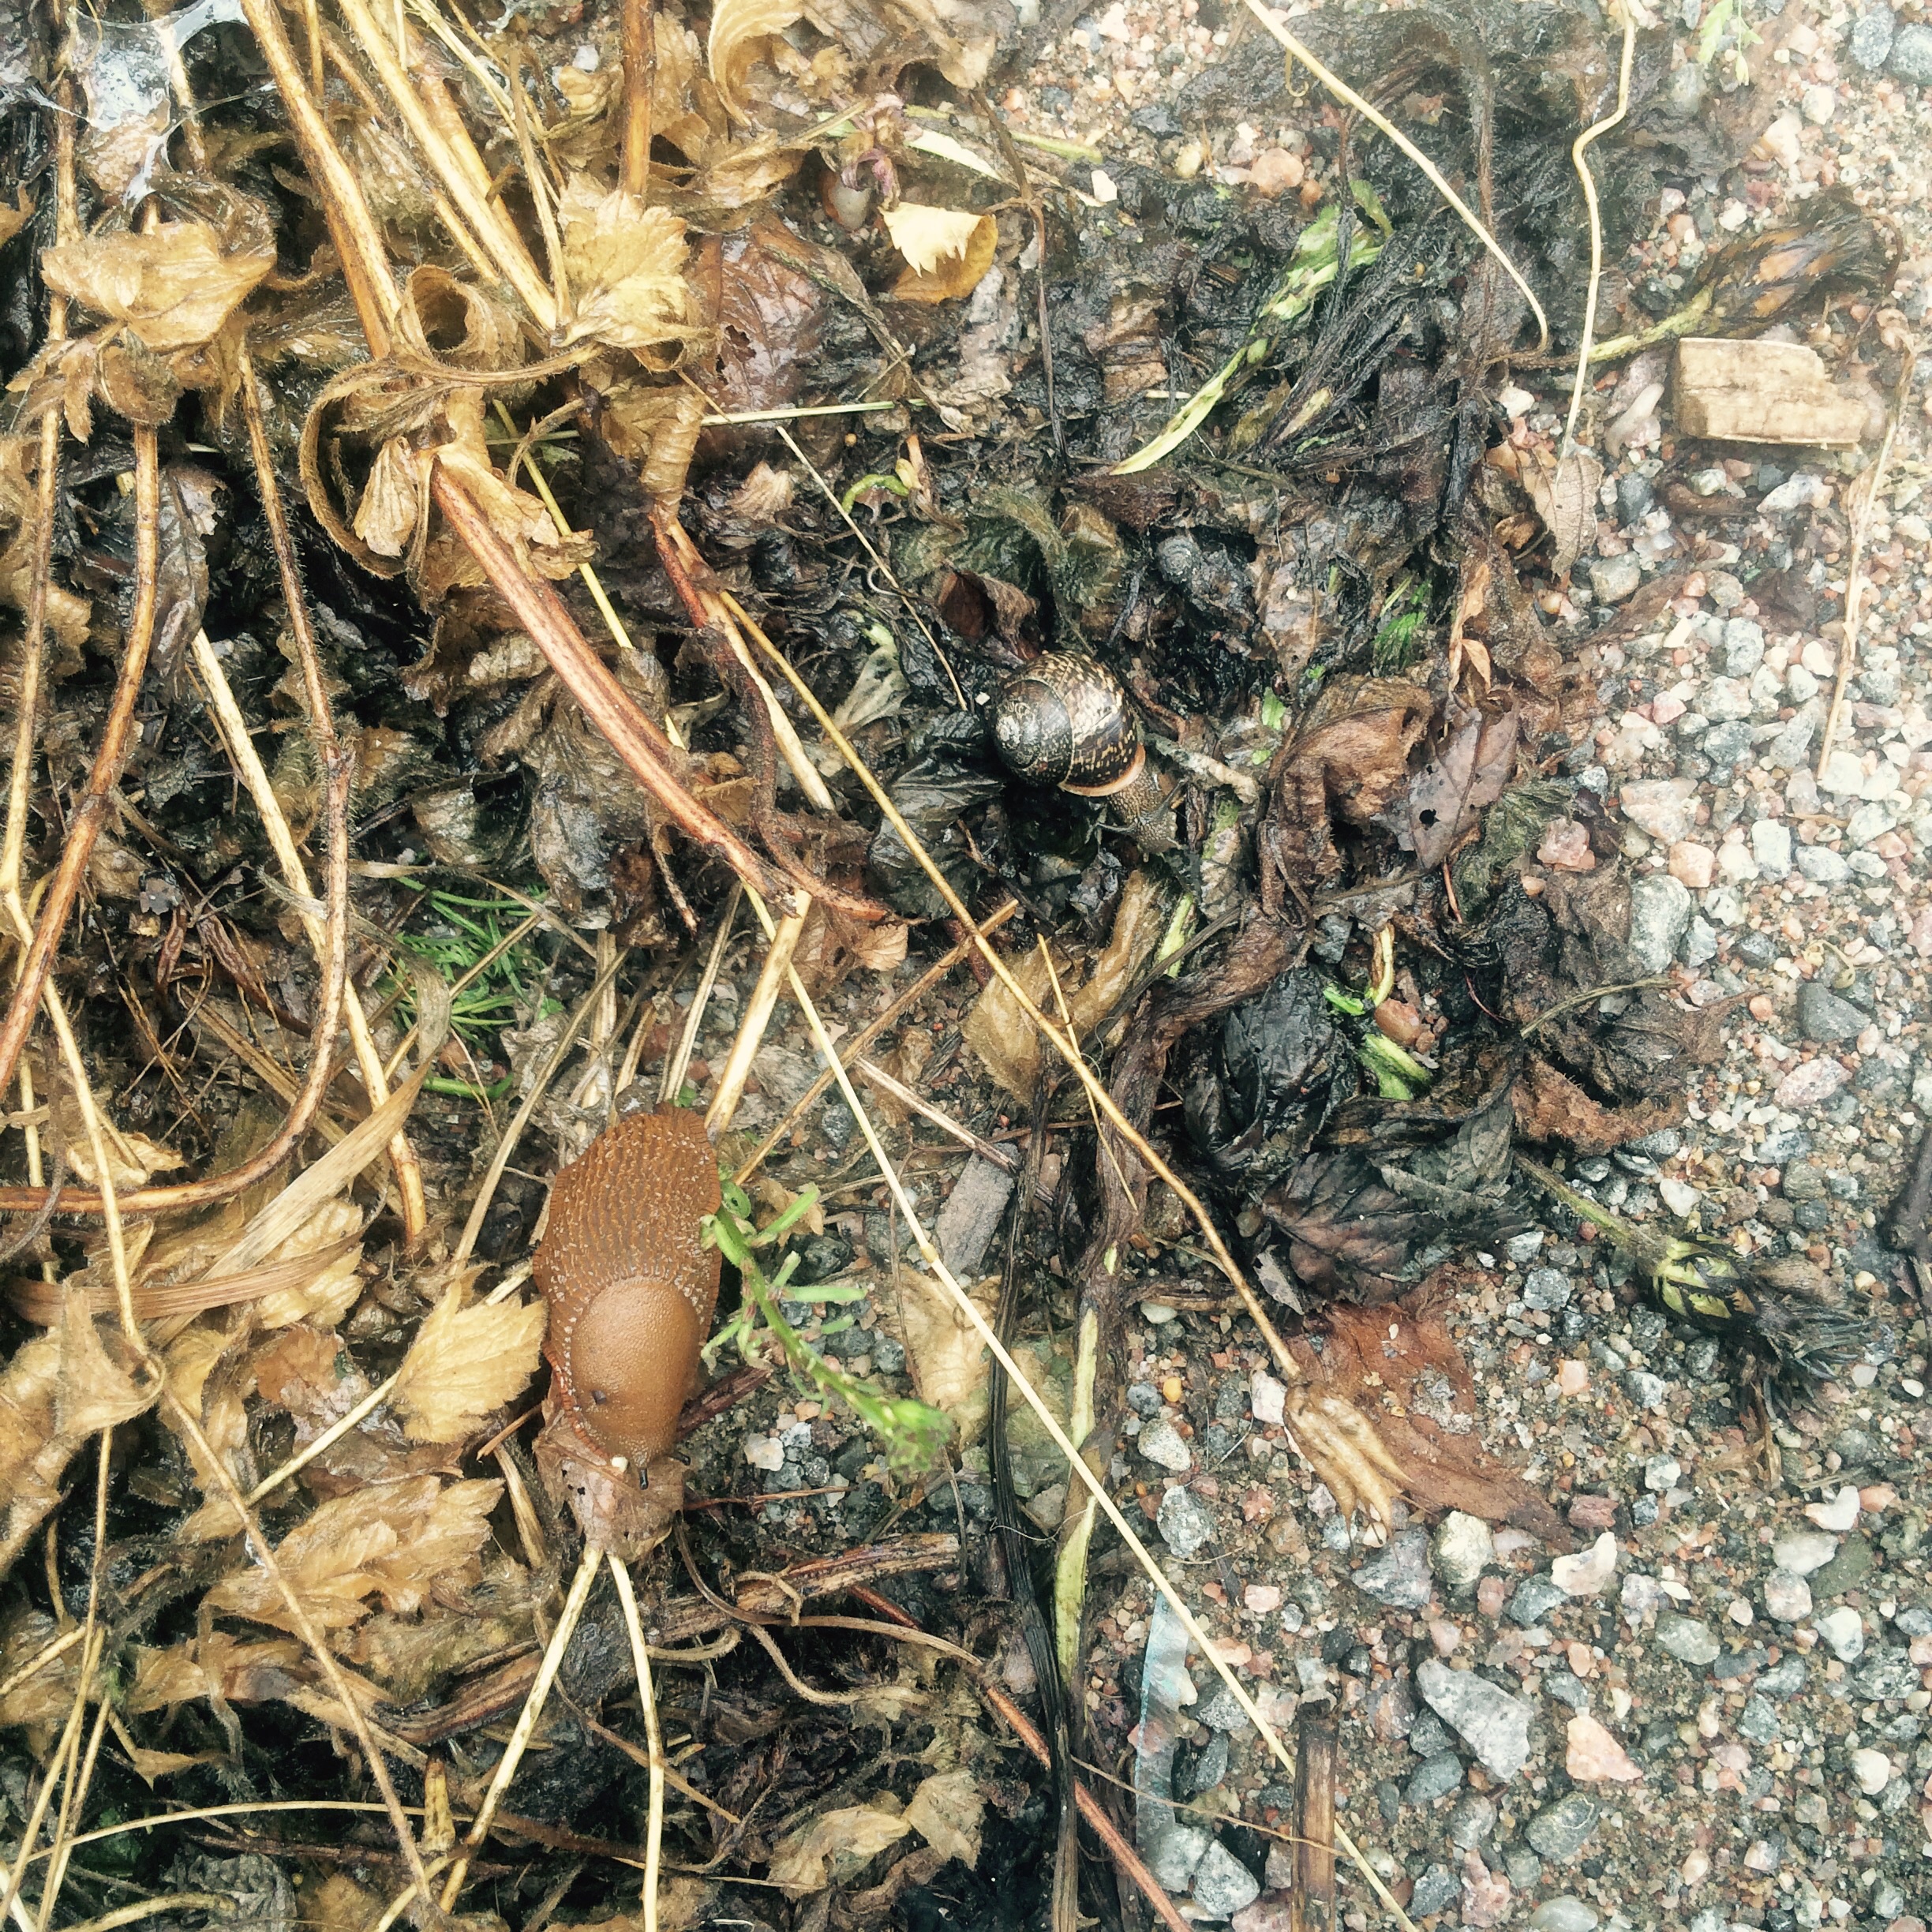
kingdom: Animalia
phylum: Mollusca
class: Gastropoda
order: Stylommatophora
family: Arionidae
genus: Arion
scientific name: Arion vulgaris
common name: Lusitanian slug
